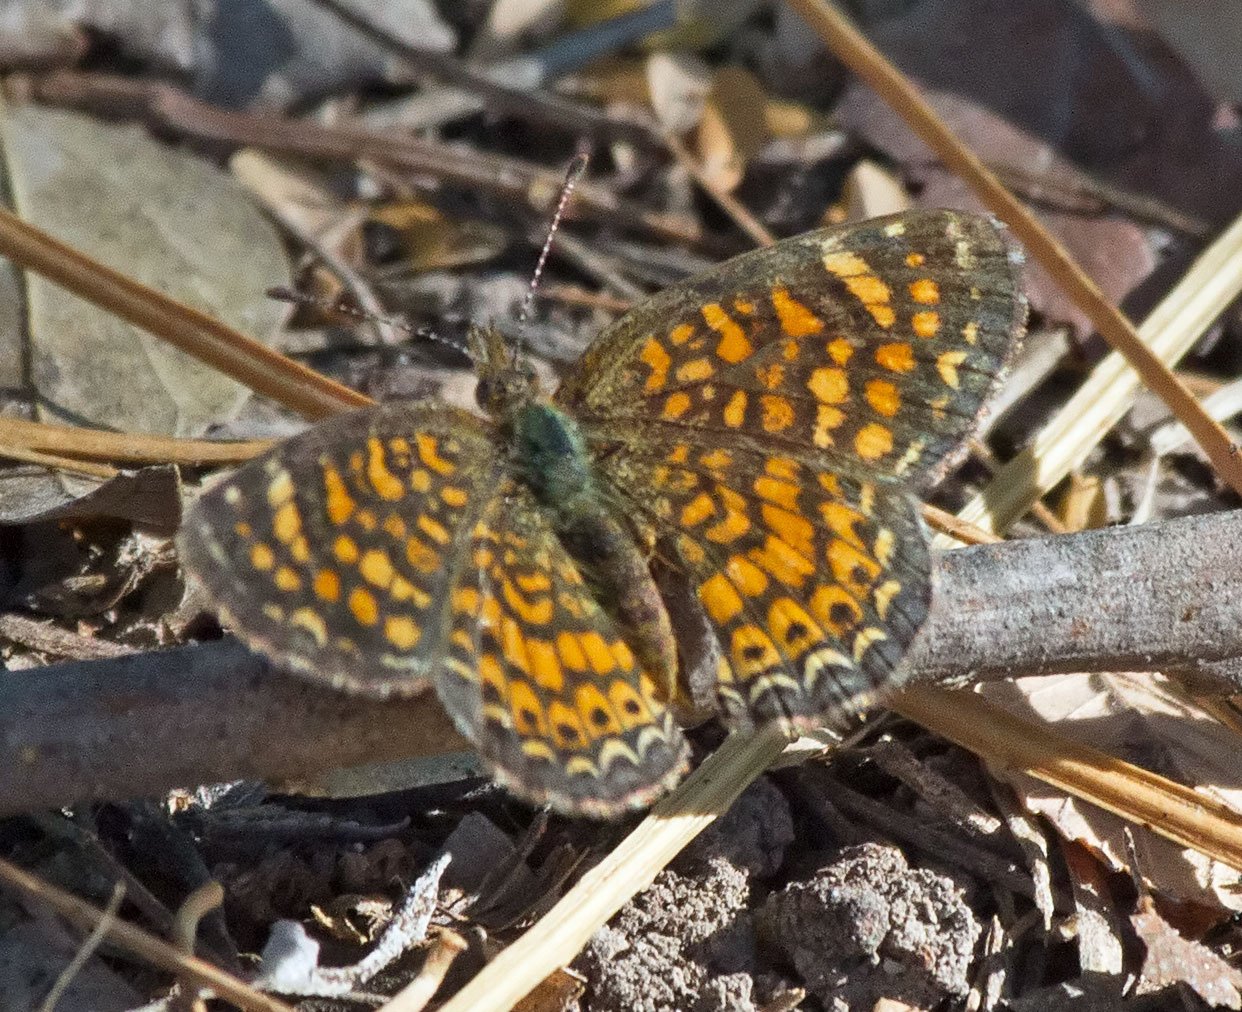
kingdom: Animalia
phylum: Arthropoda
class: Insecta
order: Lepidoptera
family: Nymphalidae
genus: Phyciodes
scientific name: Phyciodes vesta
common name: Vesta Crescent
